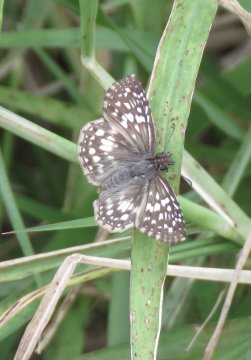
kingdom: Animalia
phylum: Arthropoda
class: Insecta
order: Lepidoptera
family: Hesperiidae
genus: Pyrgus
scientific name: Pyrgus oileus
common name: Tropical Checkered-Skipper
